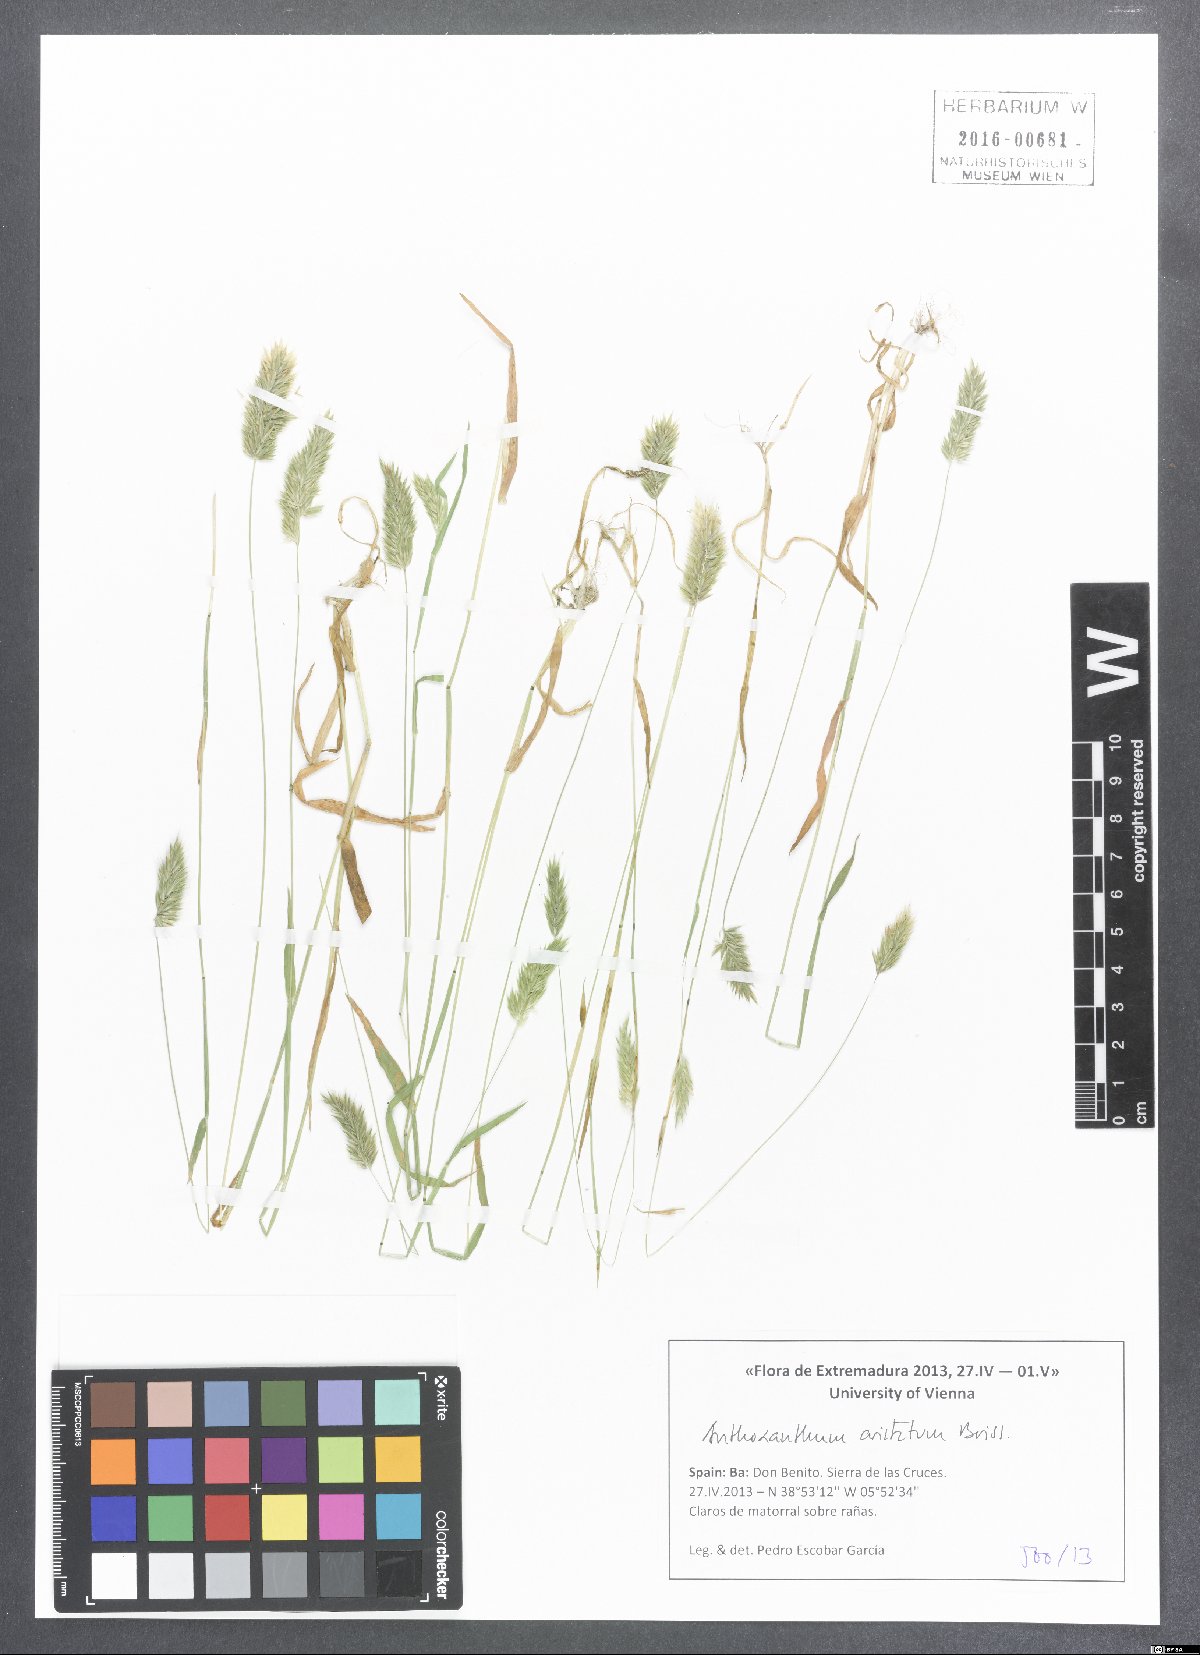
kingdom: Plantae
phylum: Tracheophyta
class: Liliopsida
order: Poales
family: Poaceae
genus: Anthoxanthum
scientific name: Anthoxanthum aristatum
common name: Annual vernal-grass
